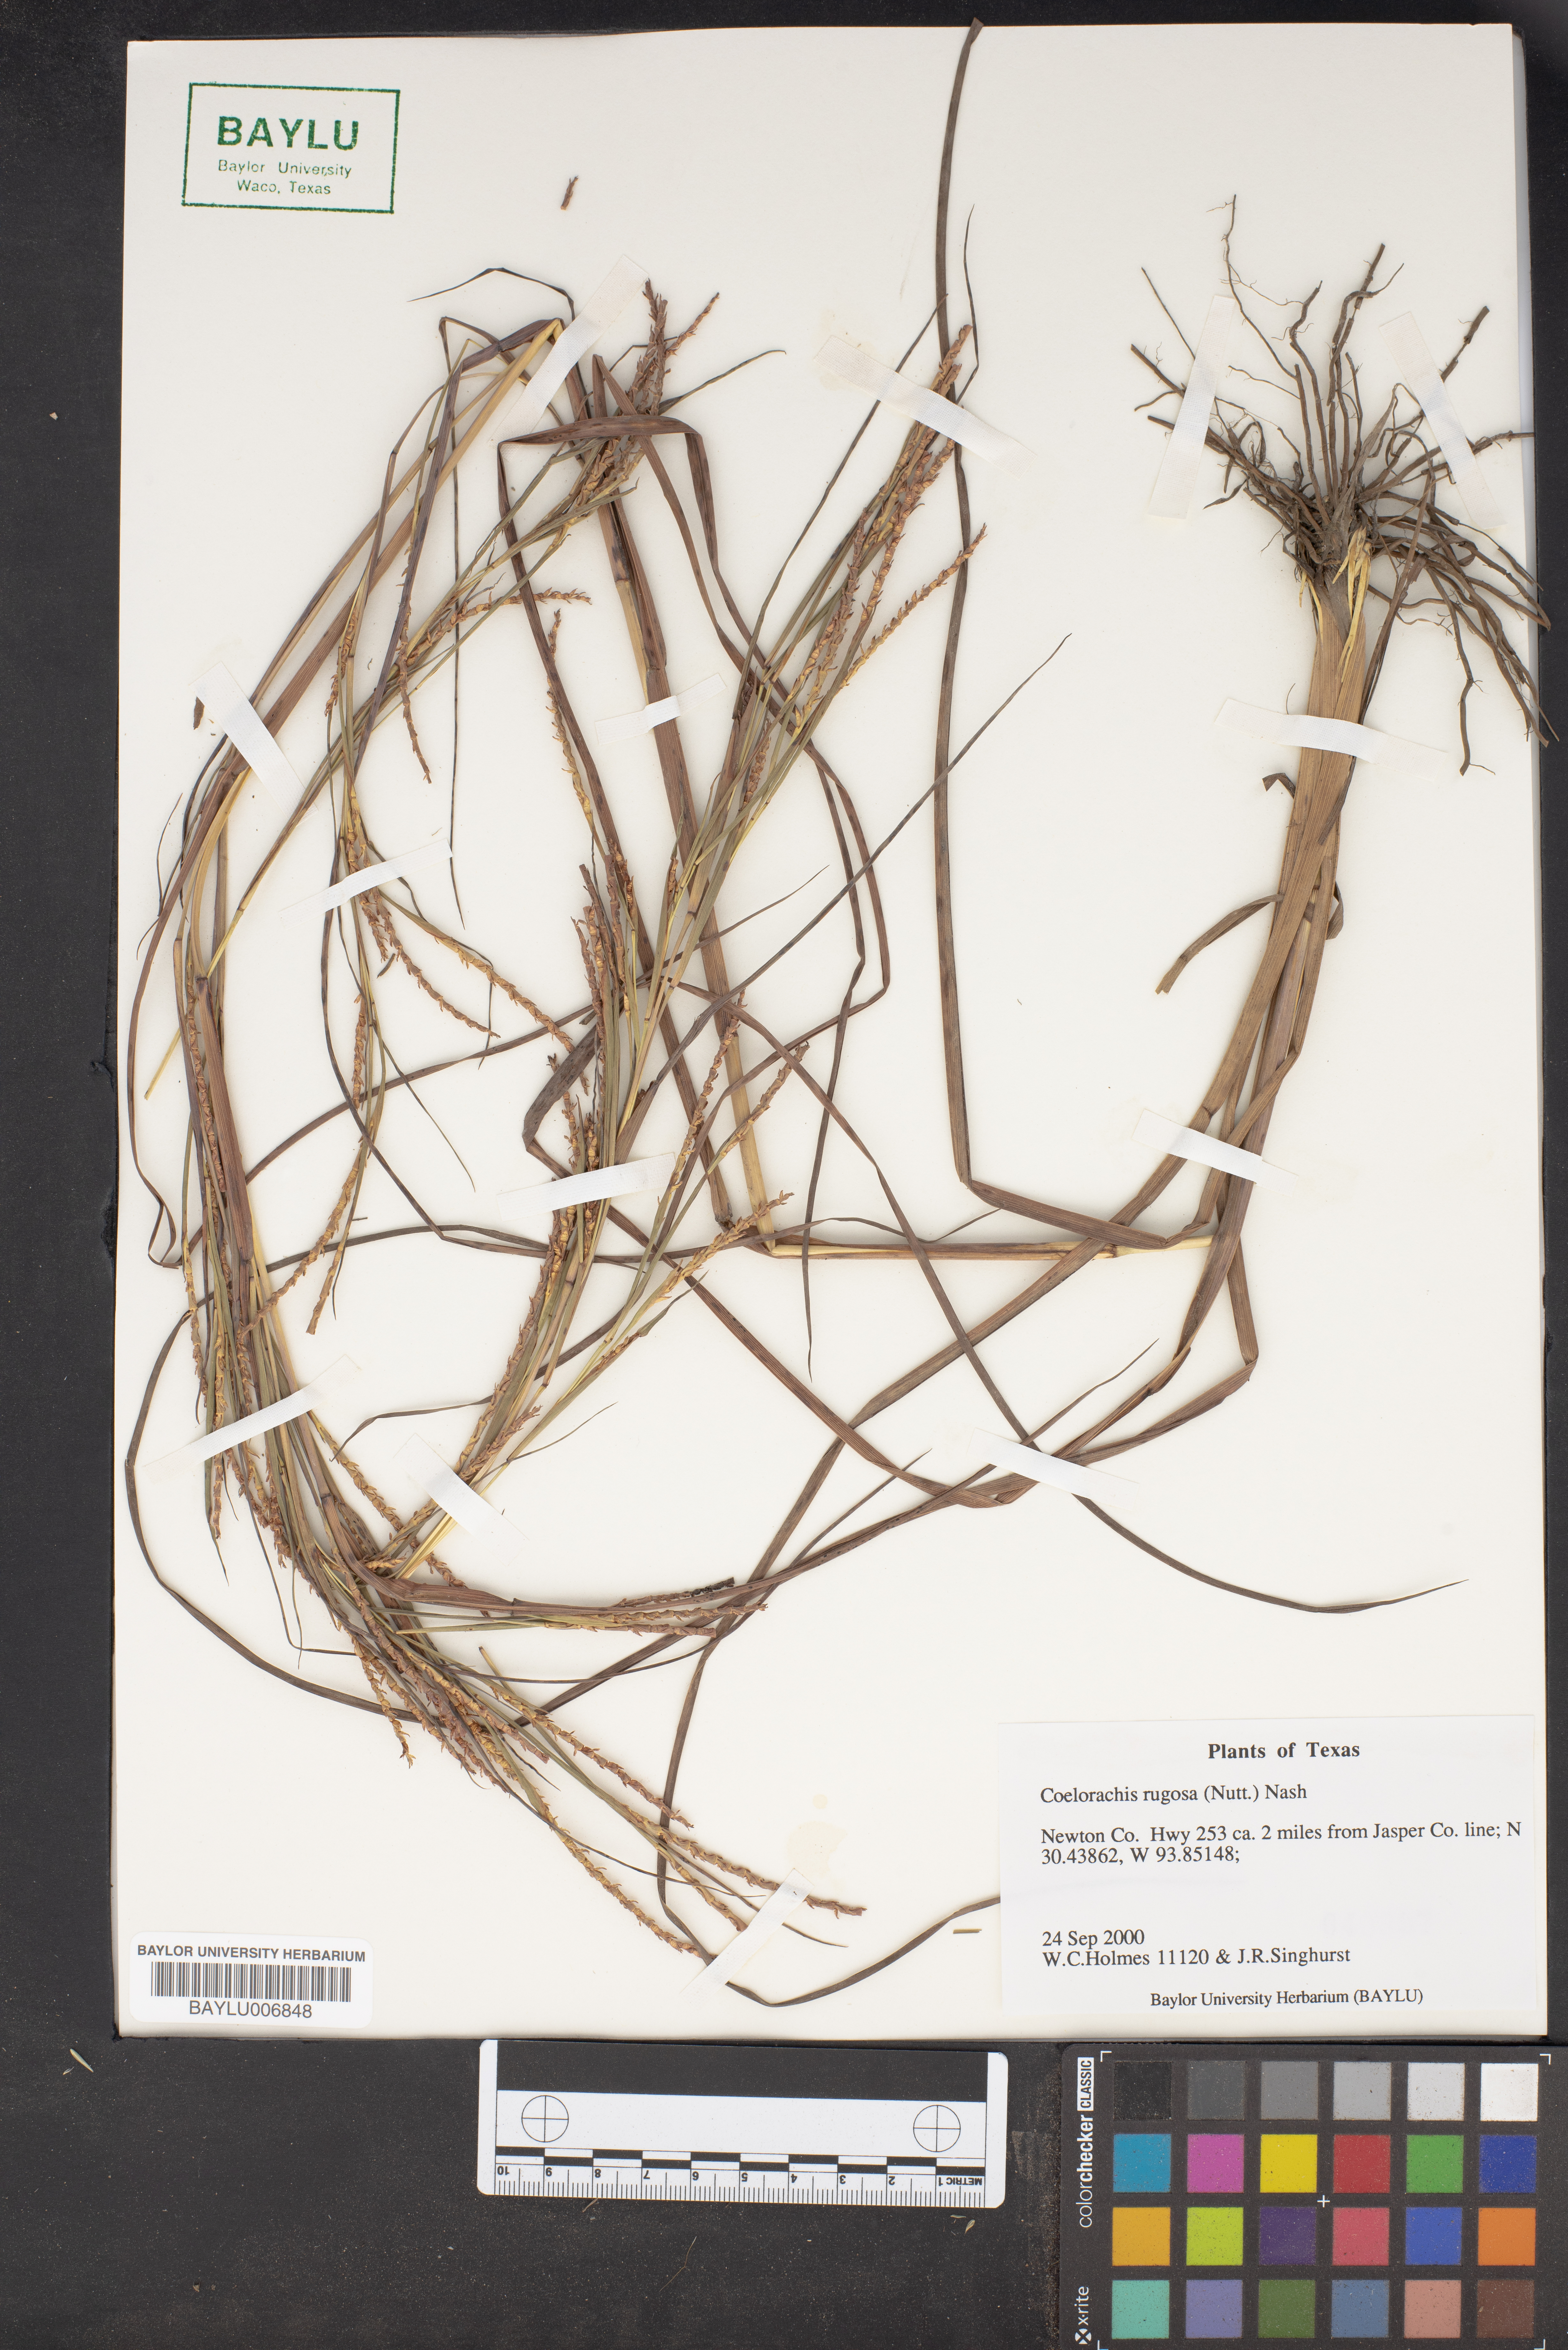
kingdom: Plantae
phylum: Tracheophyta
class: Liliopsida
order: Poales
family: Poaceae
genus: Rottboellia
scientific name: Rottboellia rugosa
